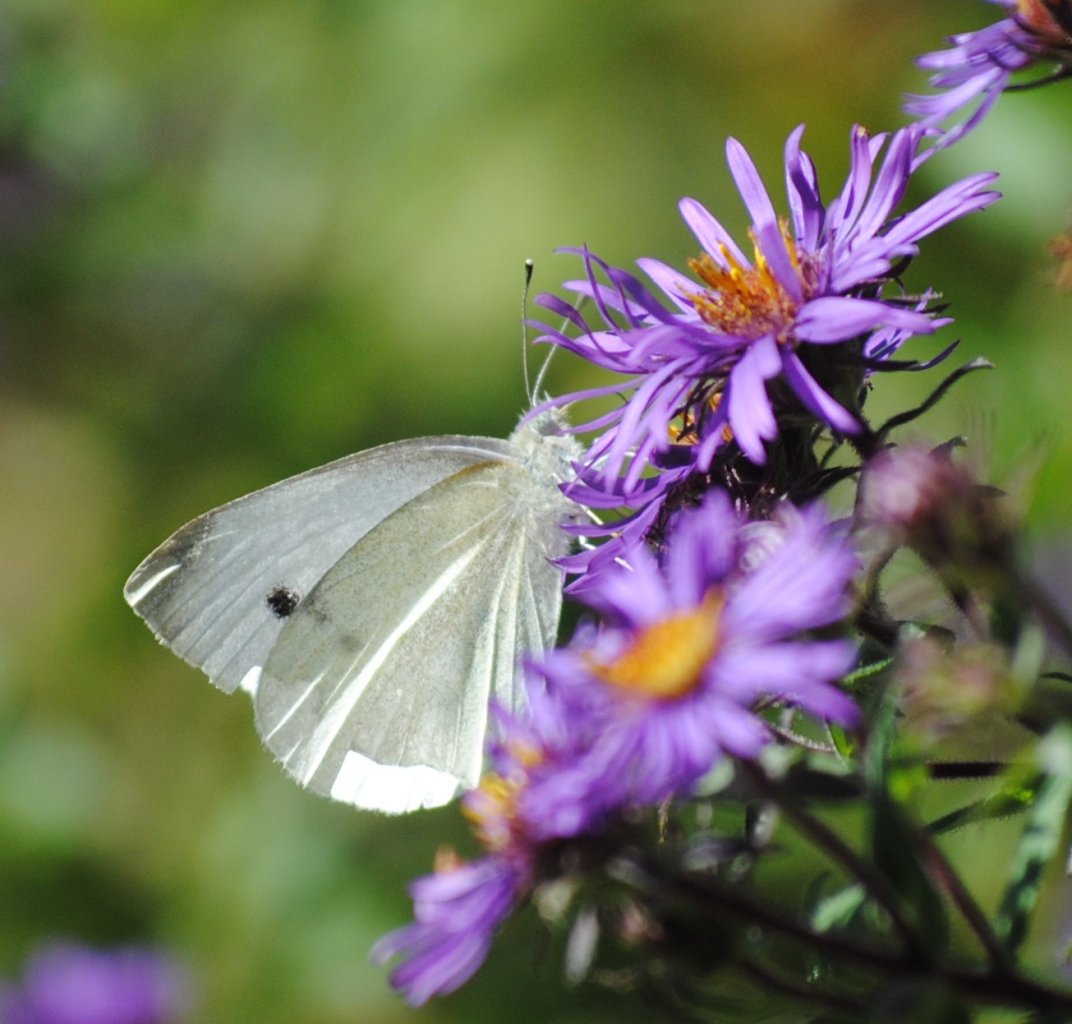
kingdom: Animalia
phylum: Arthropoda
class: Insecta
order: Lepidoptera
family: Pieridae
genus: Pieris
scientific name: Pieris rapae
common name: Cabbage White
